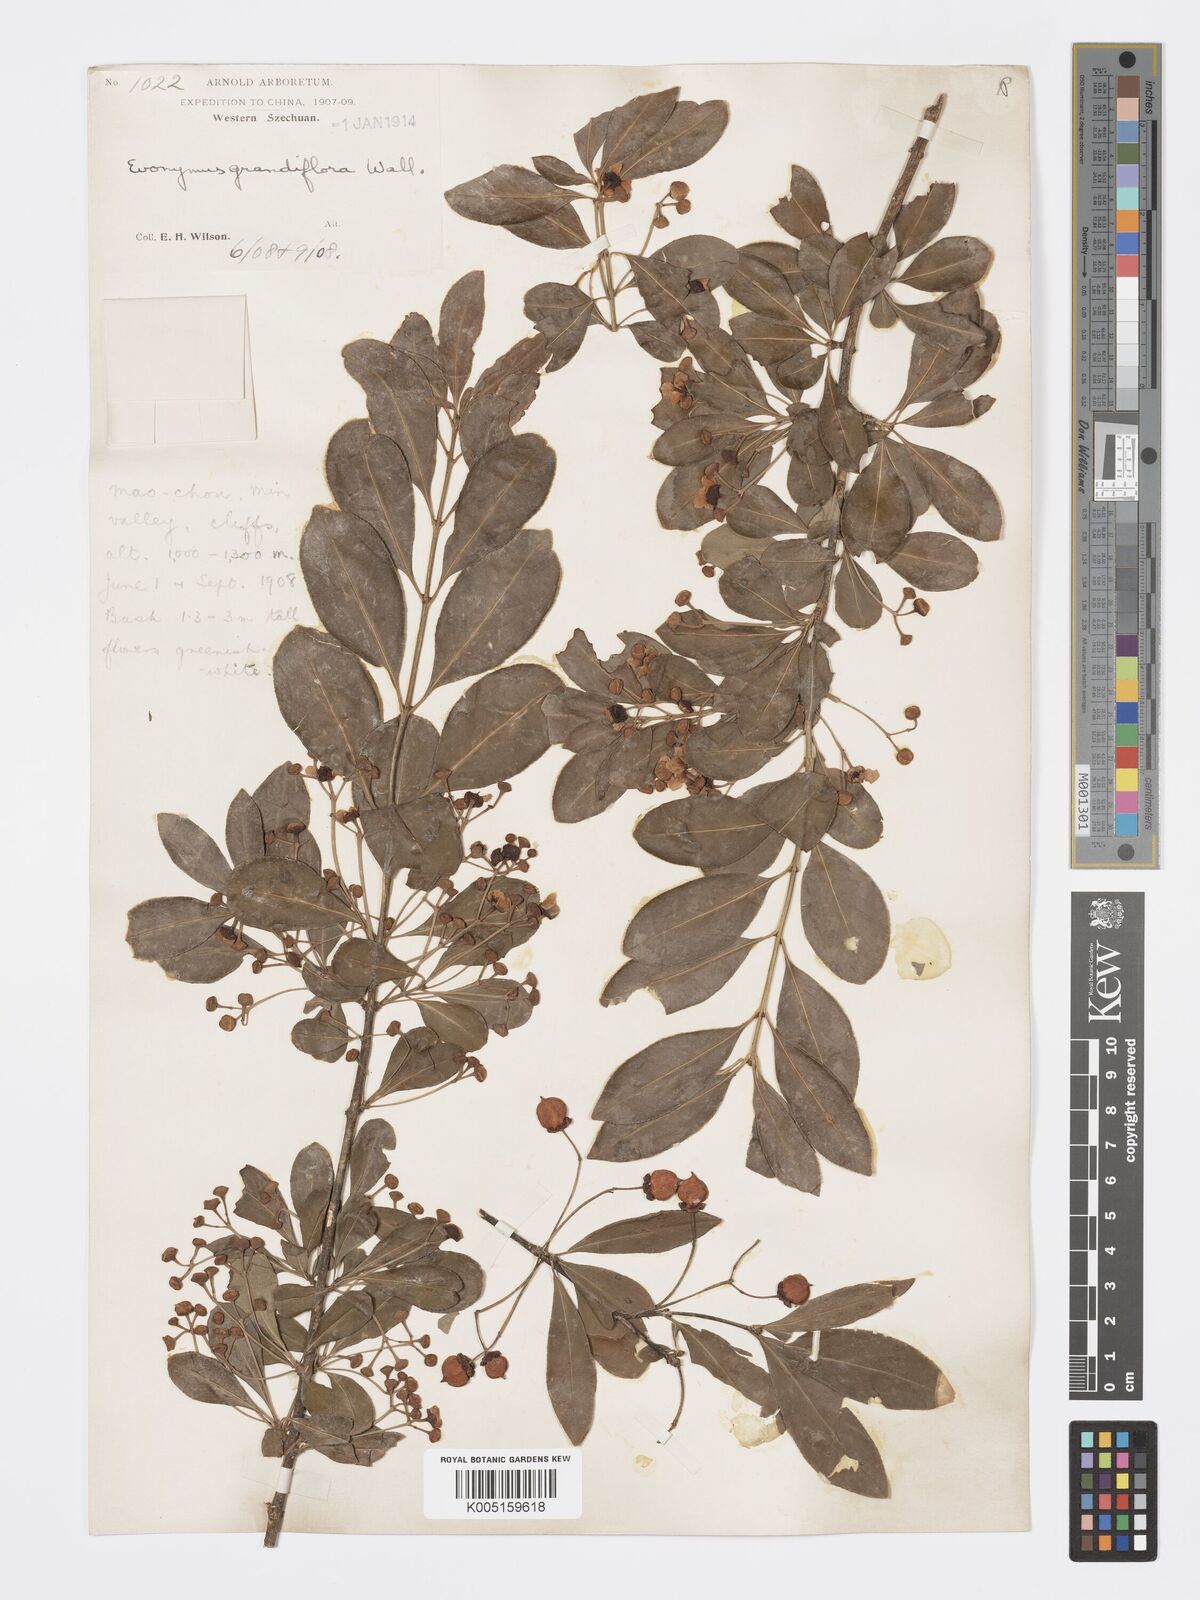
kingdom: Plantae
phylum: Tracheophyta
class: Magnoliopsida
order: Celastrales
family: Celastraceae
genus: Euonymus
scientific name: Euonymus grandiflorus
